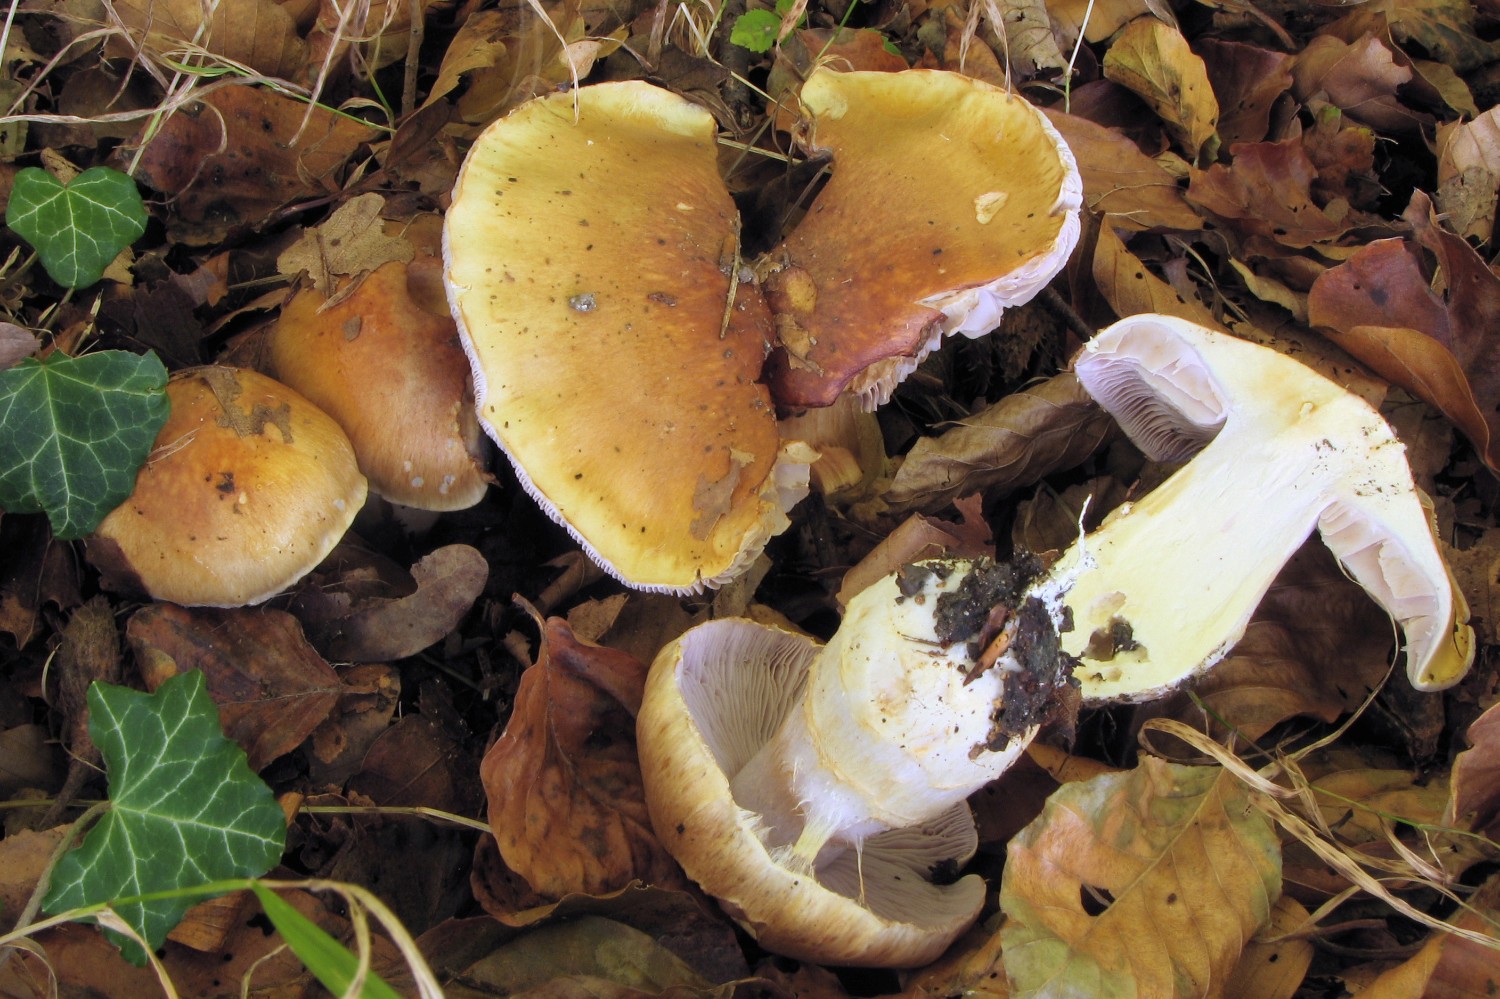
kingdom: Fungi
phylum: Basidiomycota
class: Agaricomycetes
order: Agaricales
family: Cortinariaceae
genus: Phlegmacium
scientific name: Phlegmacium variiforme
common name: løvengs-slørhat
